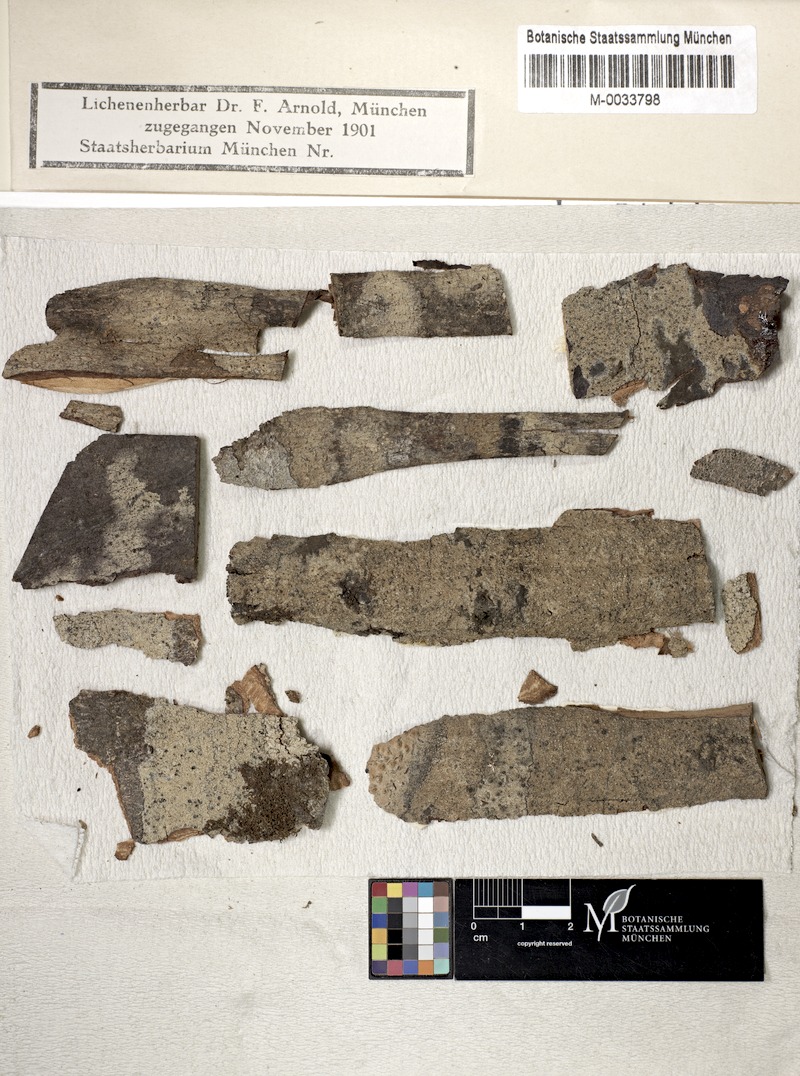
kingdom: Fungi
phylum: Ascomycota
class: Arthoniomycetes
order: Arthoniales
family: Roccellaceae
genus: Lecanactis
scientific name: Lecanactis subfarinosa
